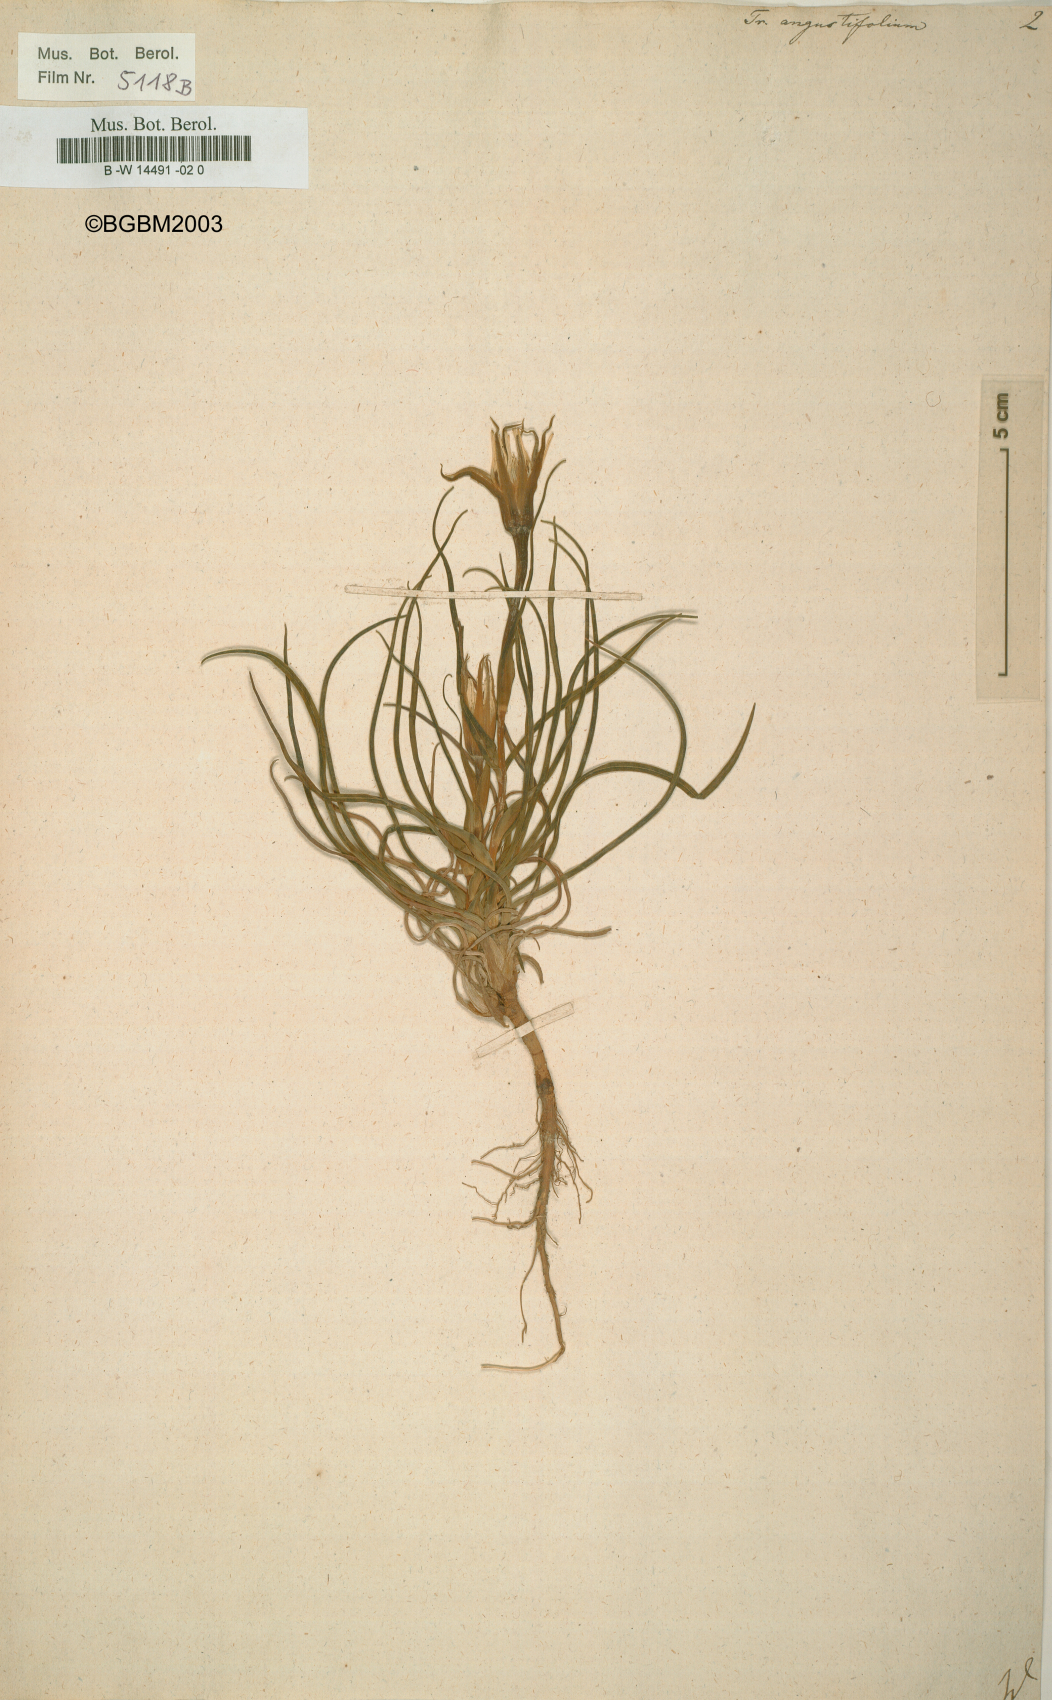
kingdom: Plantae
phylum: Tracheophyta
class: Magnoliopsida
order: Asterales
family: Asteraceae
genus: Tragopogon
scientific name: Tragopogon angustifolius
